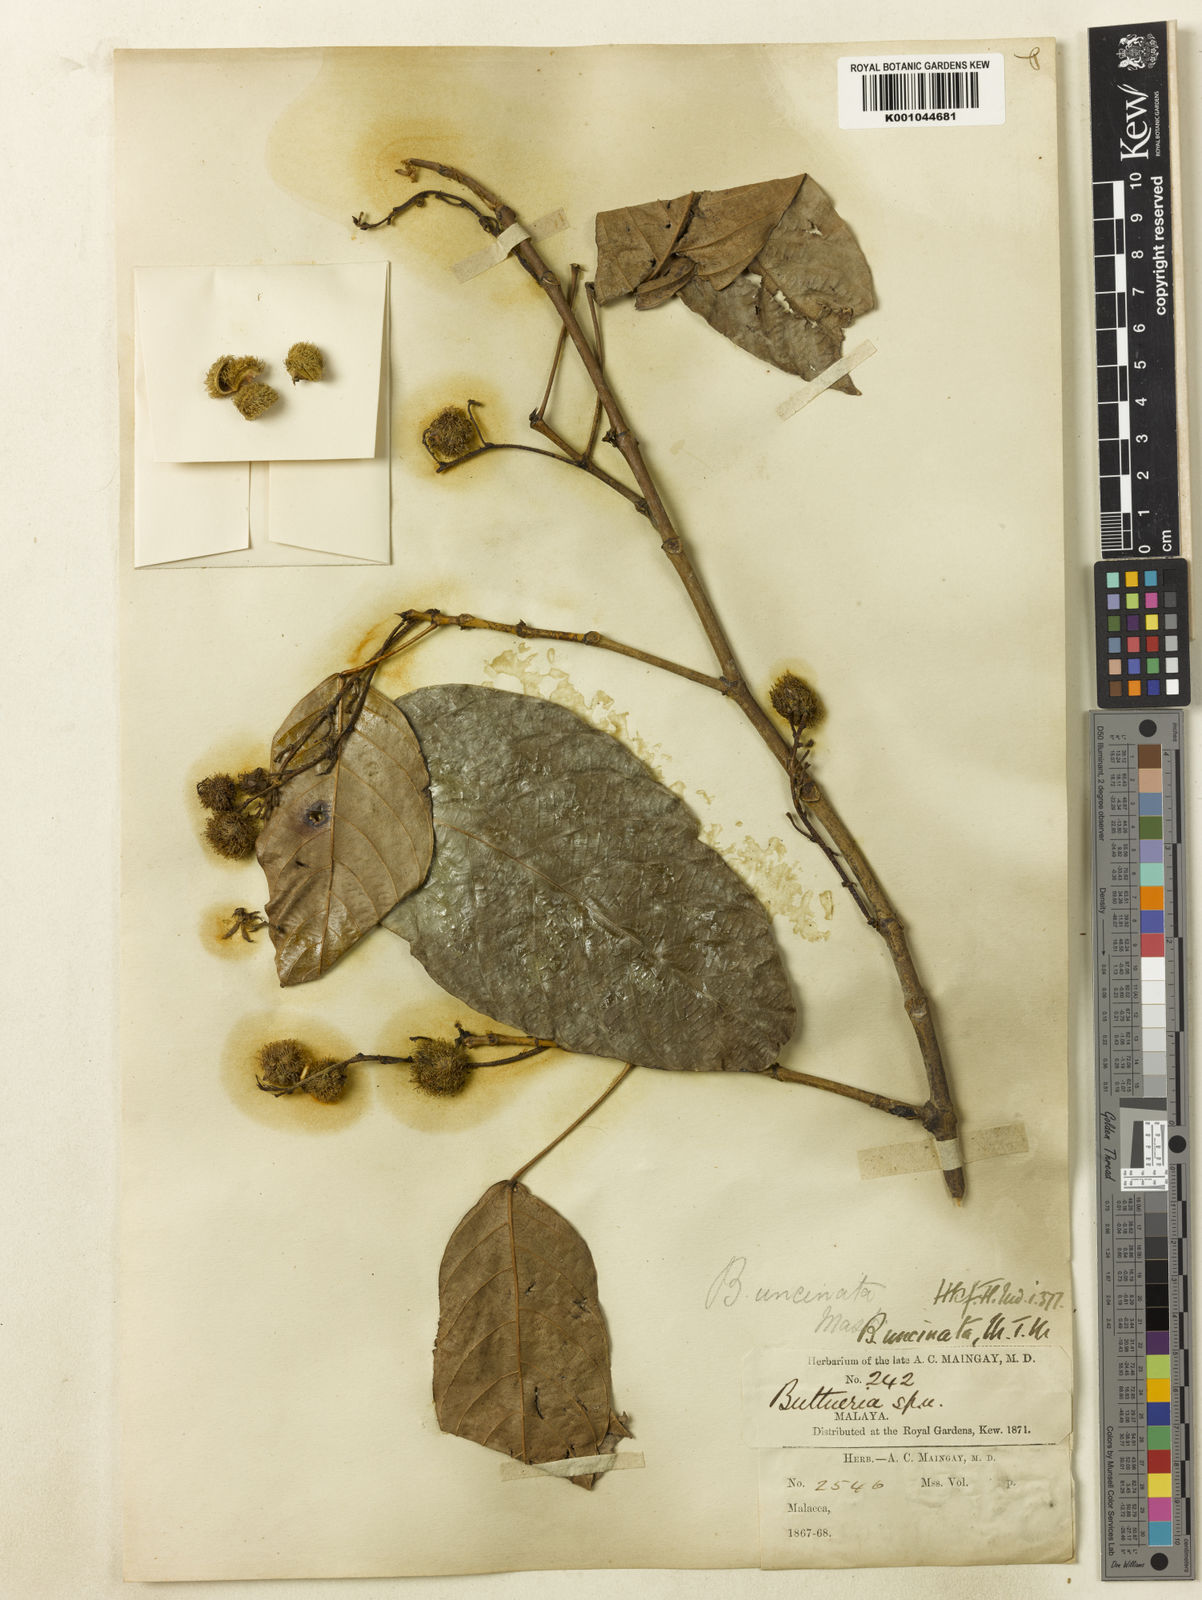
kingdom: Plantae
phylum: Tracheophyta
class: Magnoliopsida
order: Malpighiales
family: Euphorbiaceae
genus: Hancea
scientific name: Hancea griffithiana
